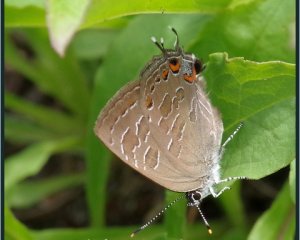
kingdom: Animalia
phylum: Arthropoda
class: Insecta
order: Lepidoptera
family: Lycaenidae
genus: Satyrium
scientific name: Satyrium liparops
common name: Striped Hairstreak
